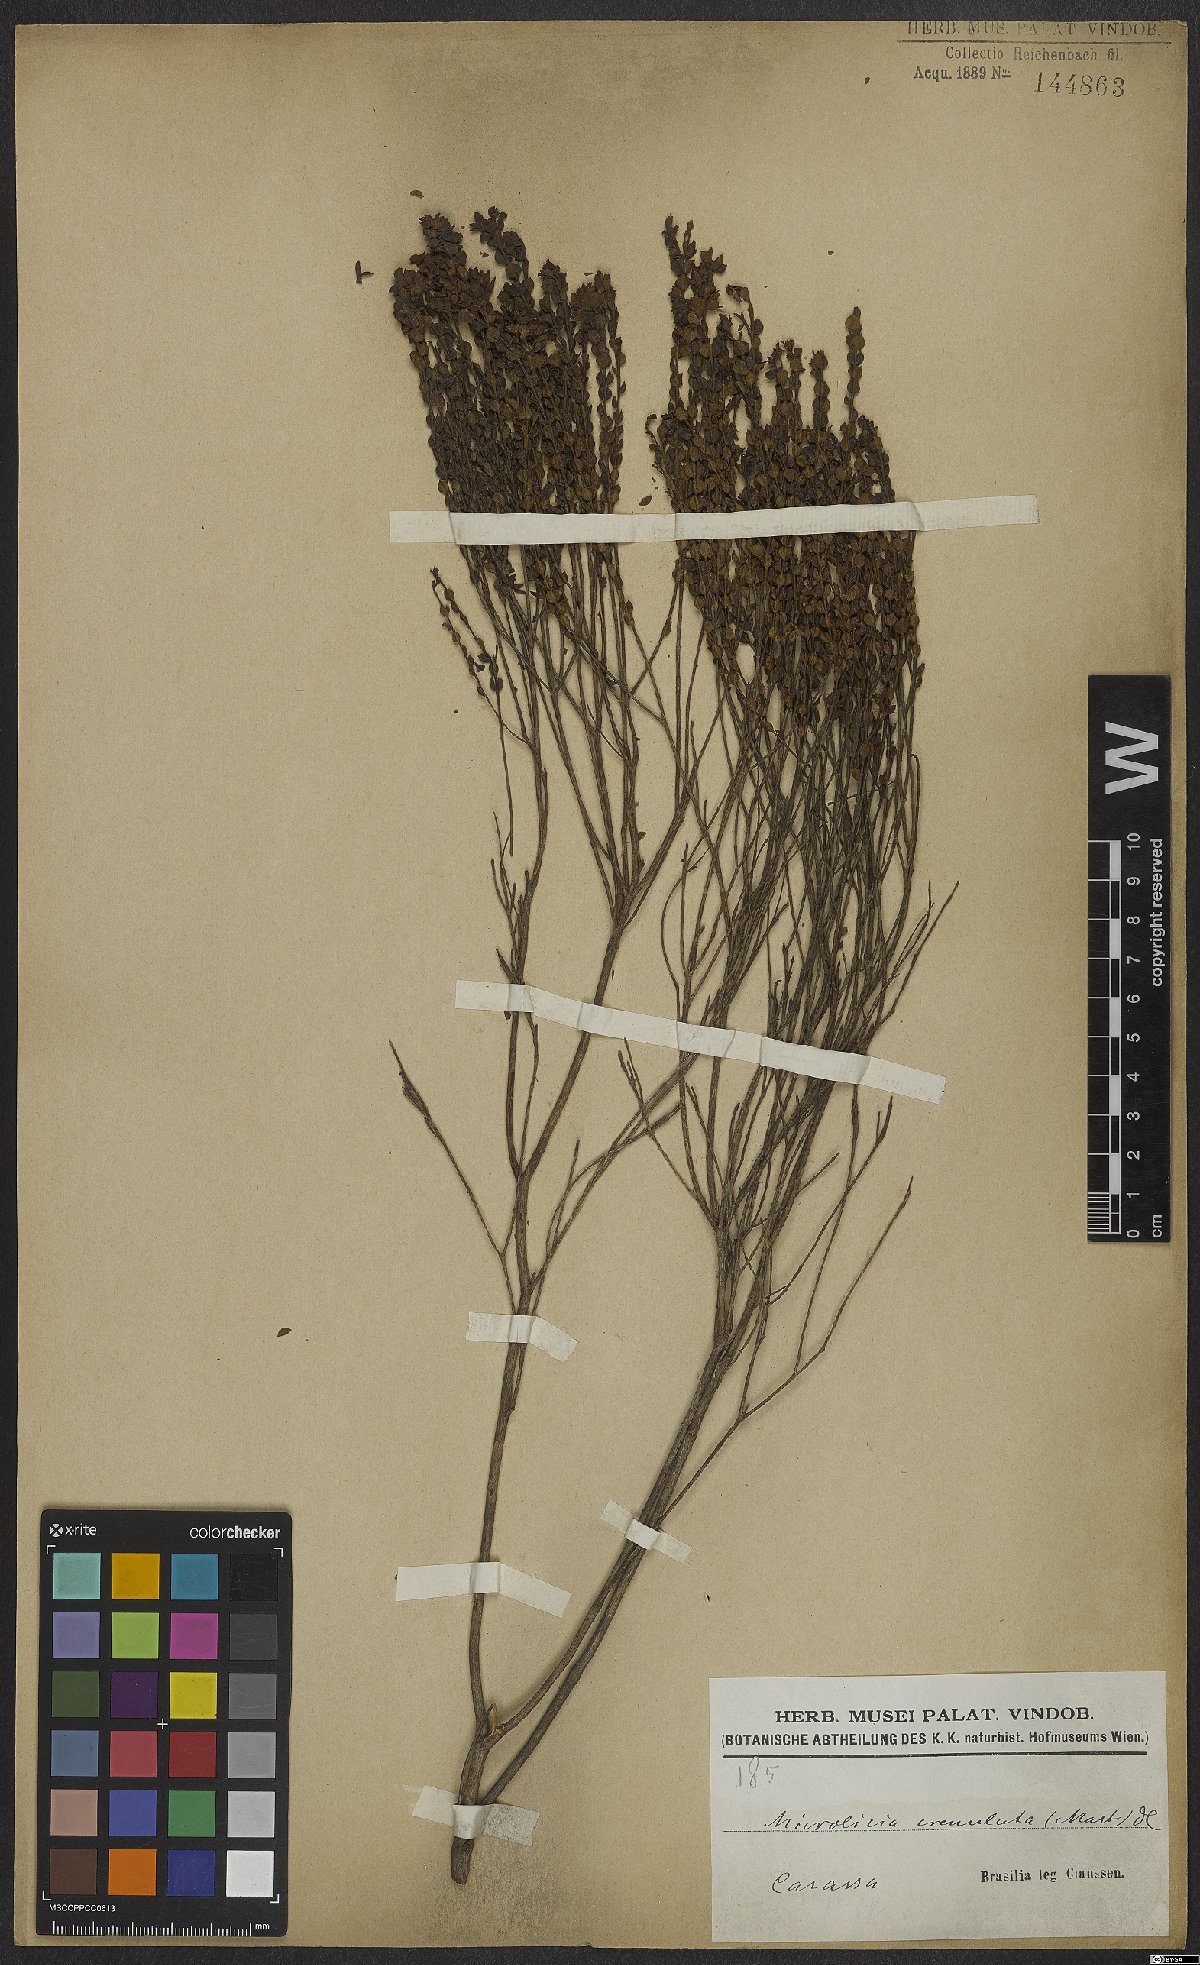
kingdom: Plantae
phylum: Tracheophyta
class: Magnoliopsida
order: Myrtales
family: Melastomataceae
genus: Microlicia
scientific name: Microlicia crenulata
